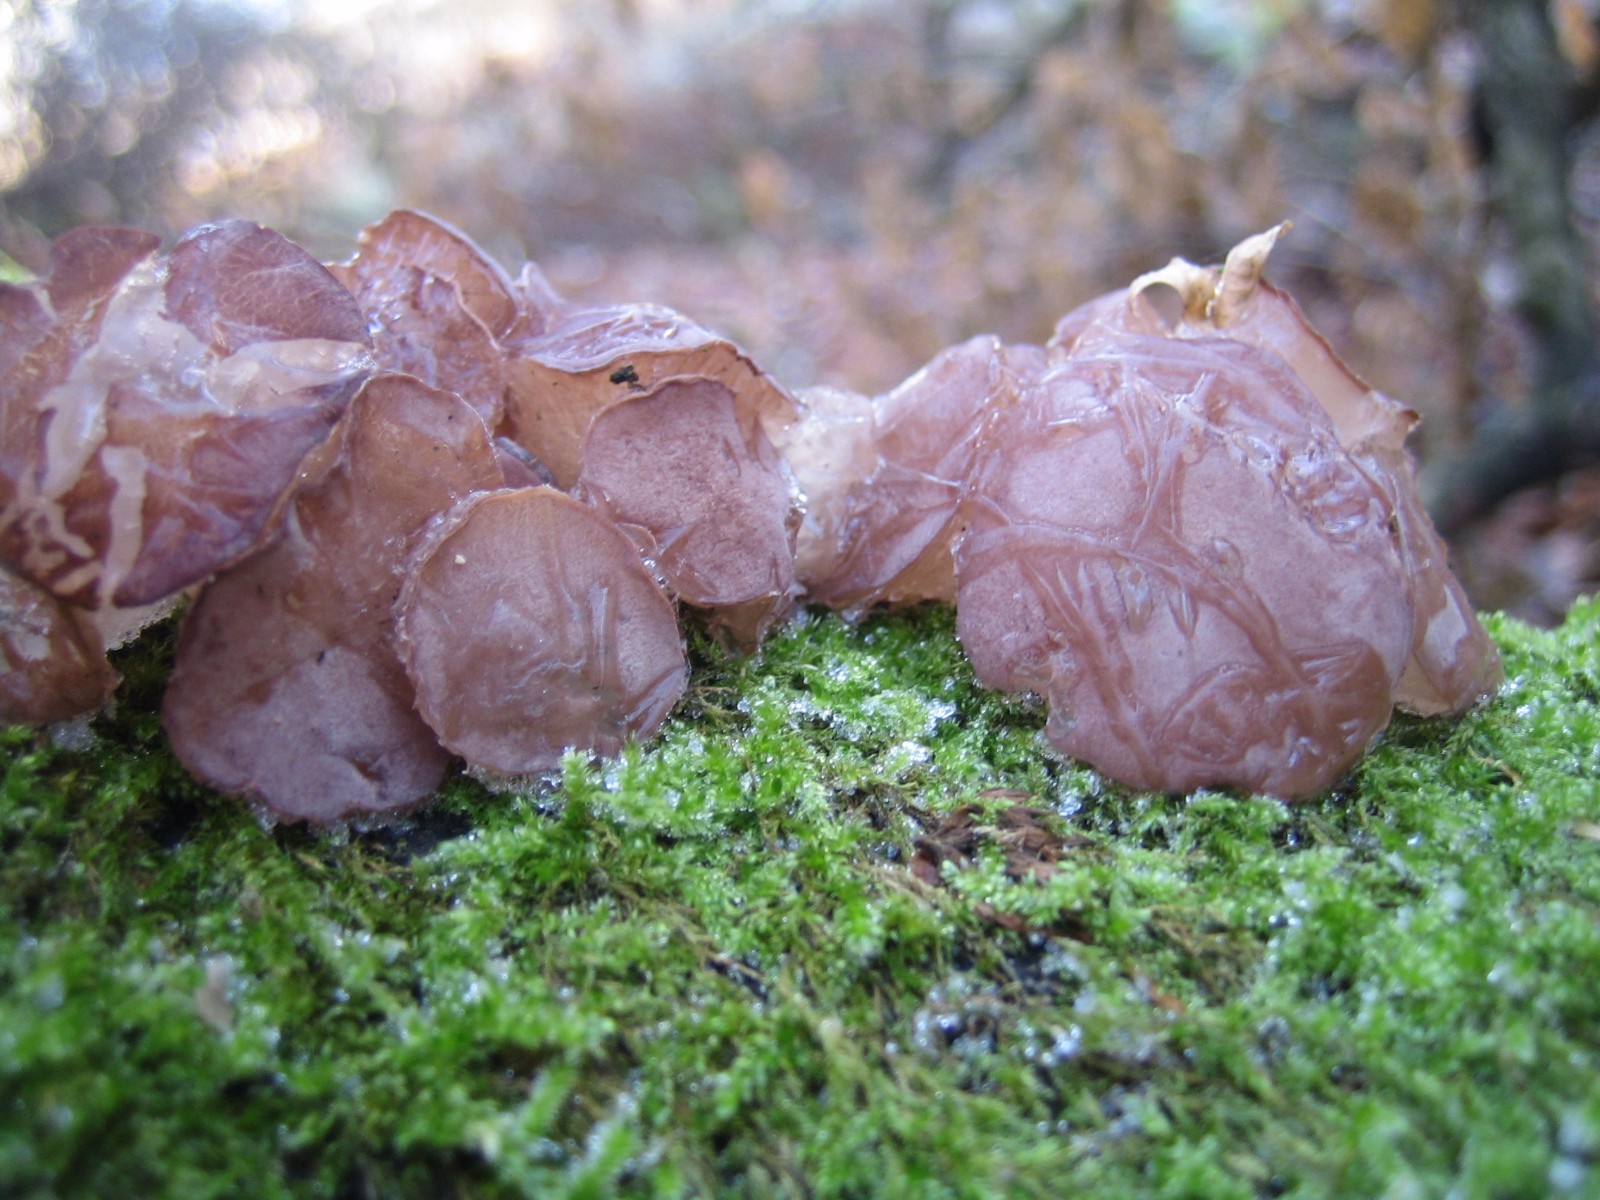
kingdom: Fungi
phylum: Ascomycota
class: Leotiomycetes
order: Helotiales
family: Gelatinodiscaceae
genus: Neobulgaria
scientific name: Neobulgaria pura
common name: bleg bævreskive
